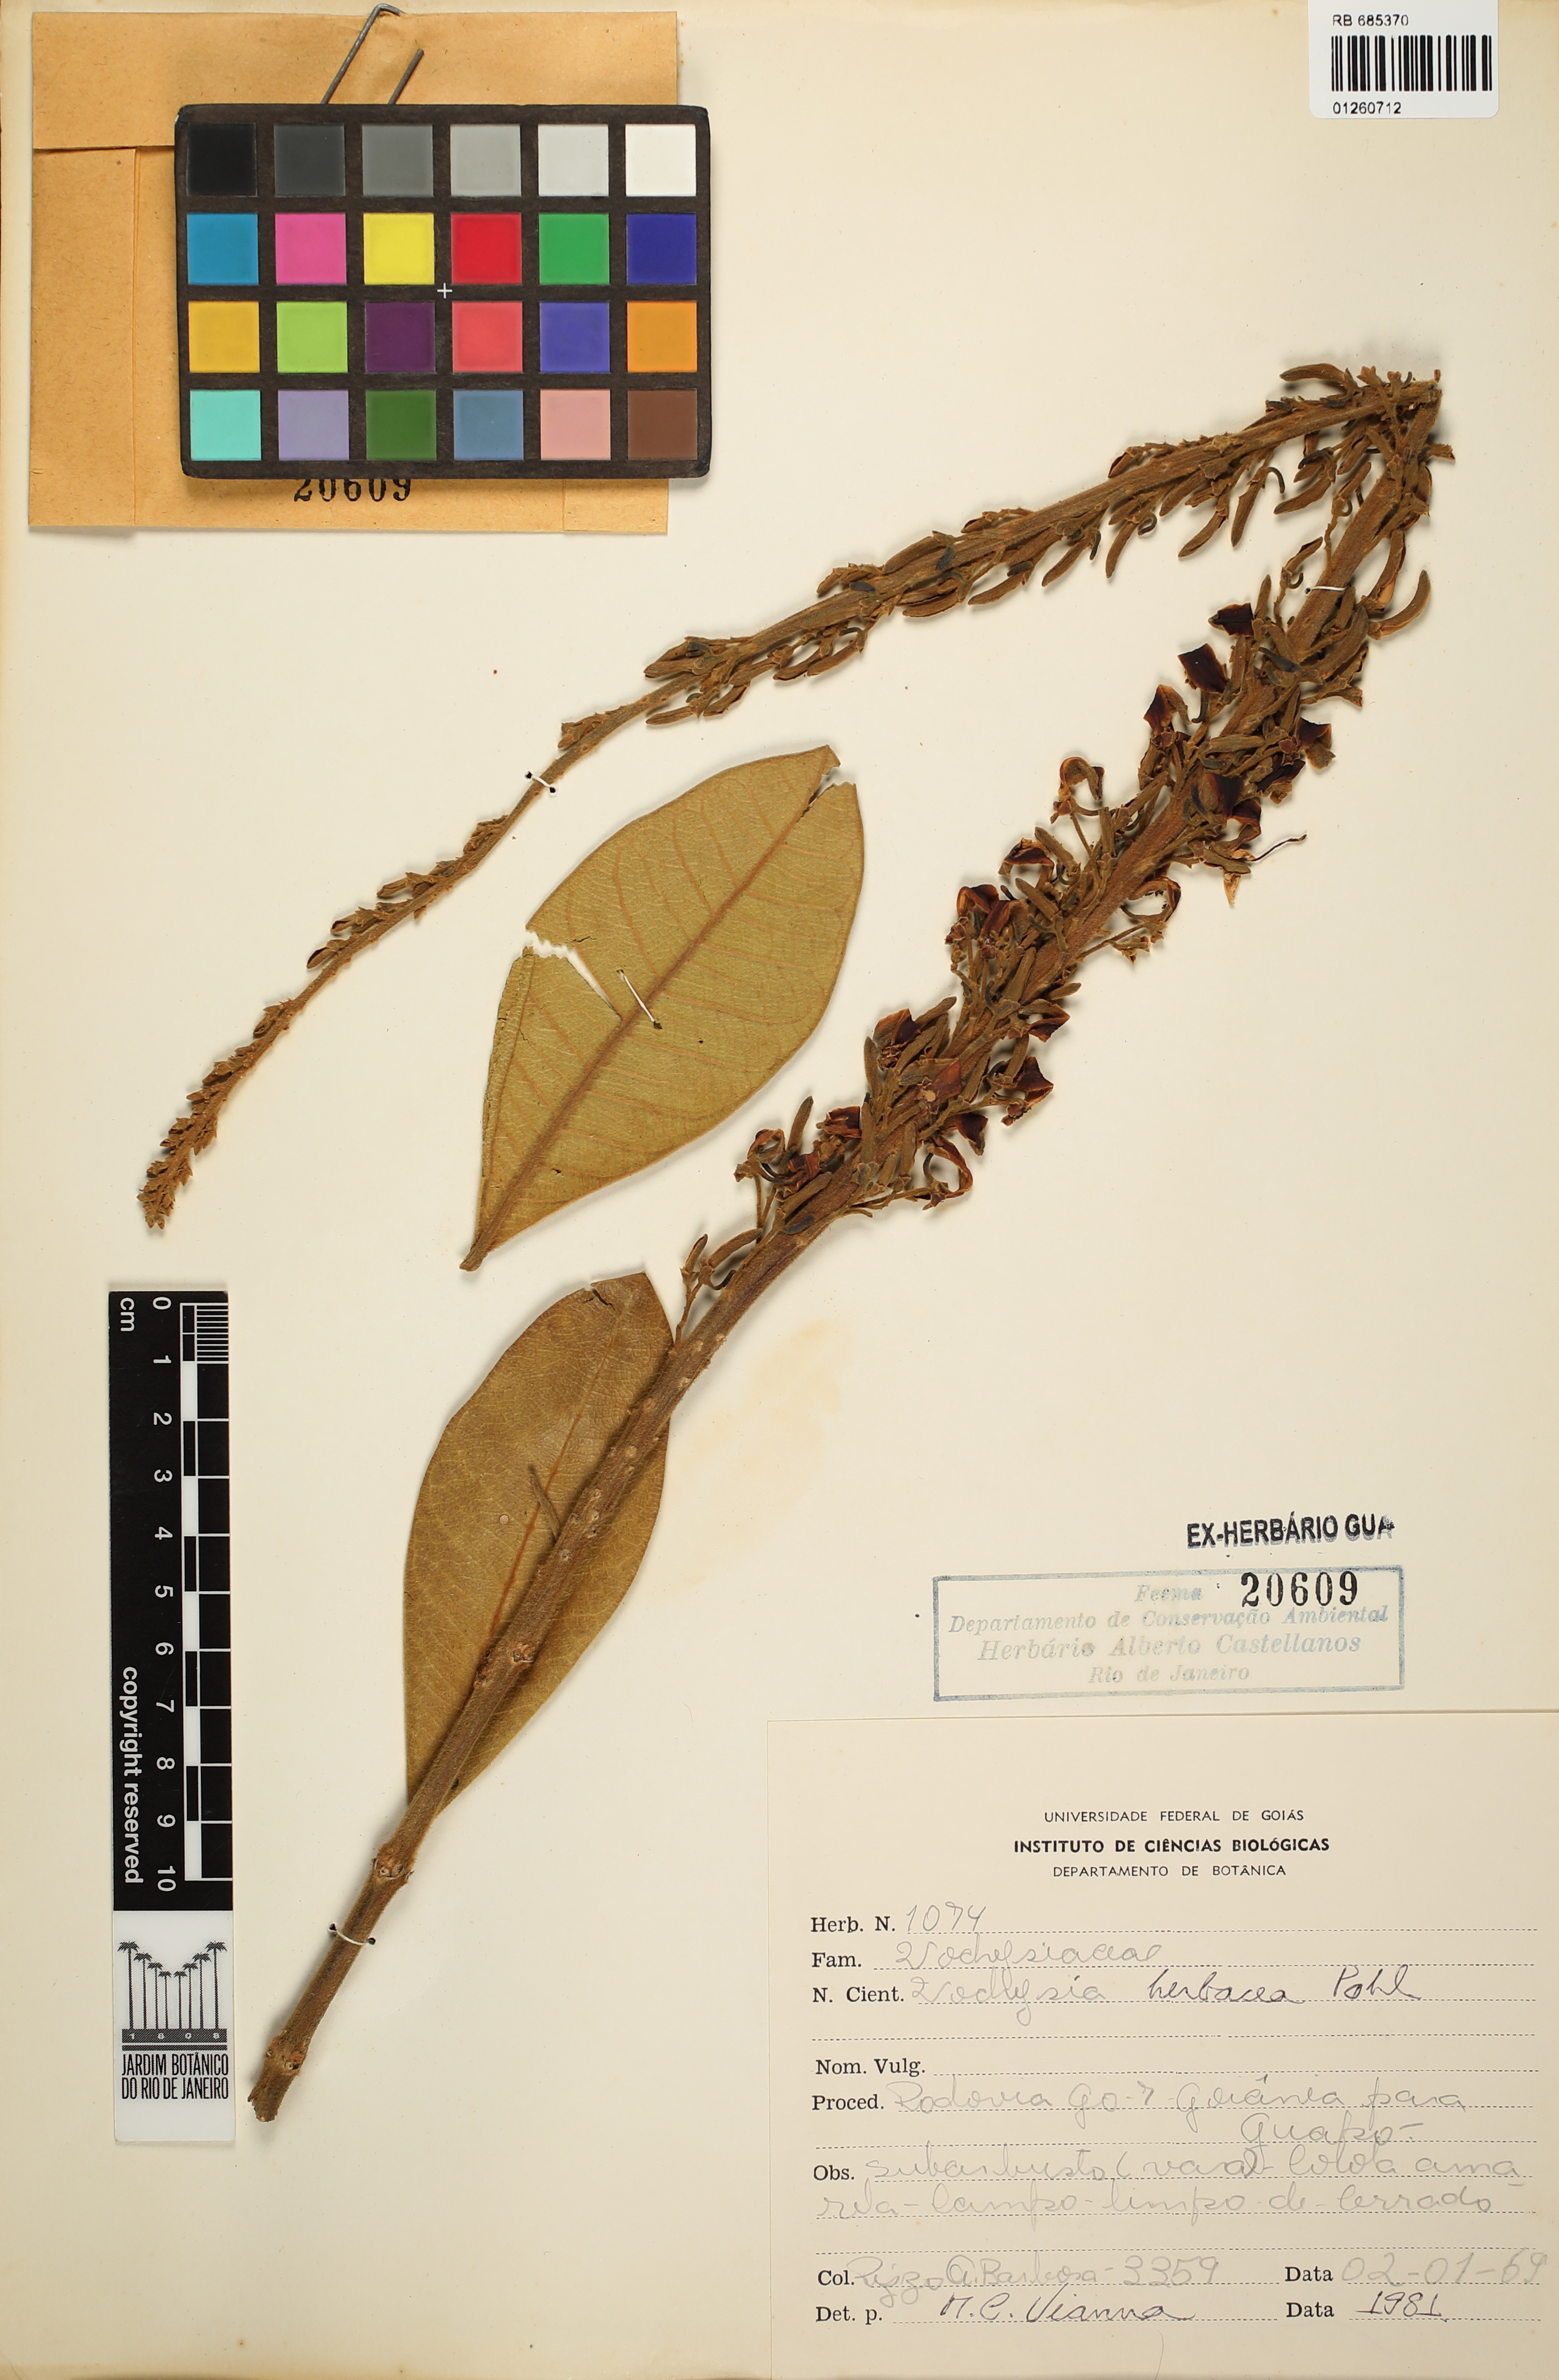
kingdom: Plantae
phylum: Tracheophyta
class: Magnoliopsida
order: Myrtales
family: Vochysiaceae
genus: Vochysia
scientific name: Vochysia herbacea
